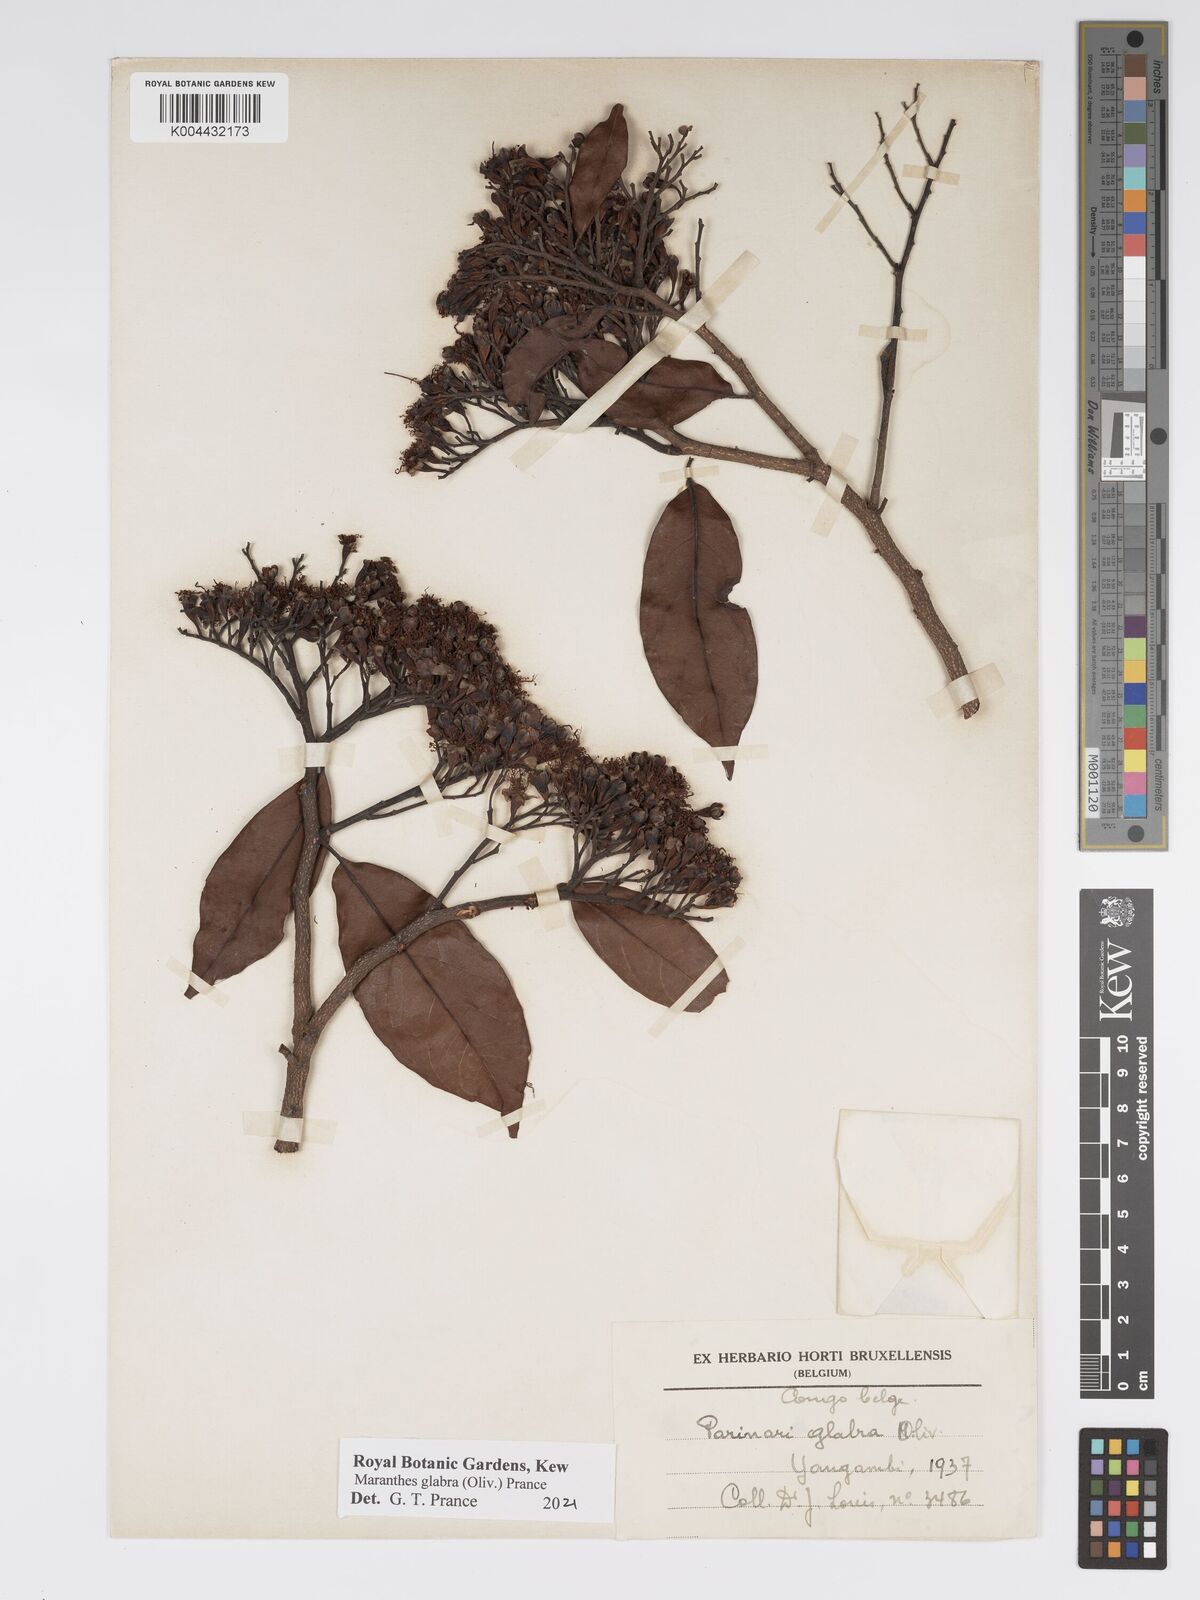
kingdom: Plantae
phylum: Tracheophyta
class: Magnoliopsida
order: Malpighiales
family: Chrysobalanaceae
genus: Maranthes
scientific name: Maranthes glabra
